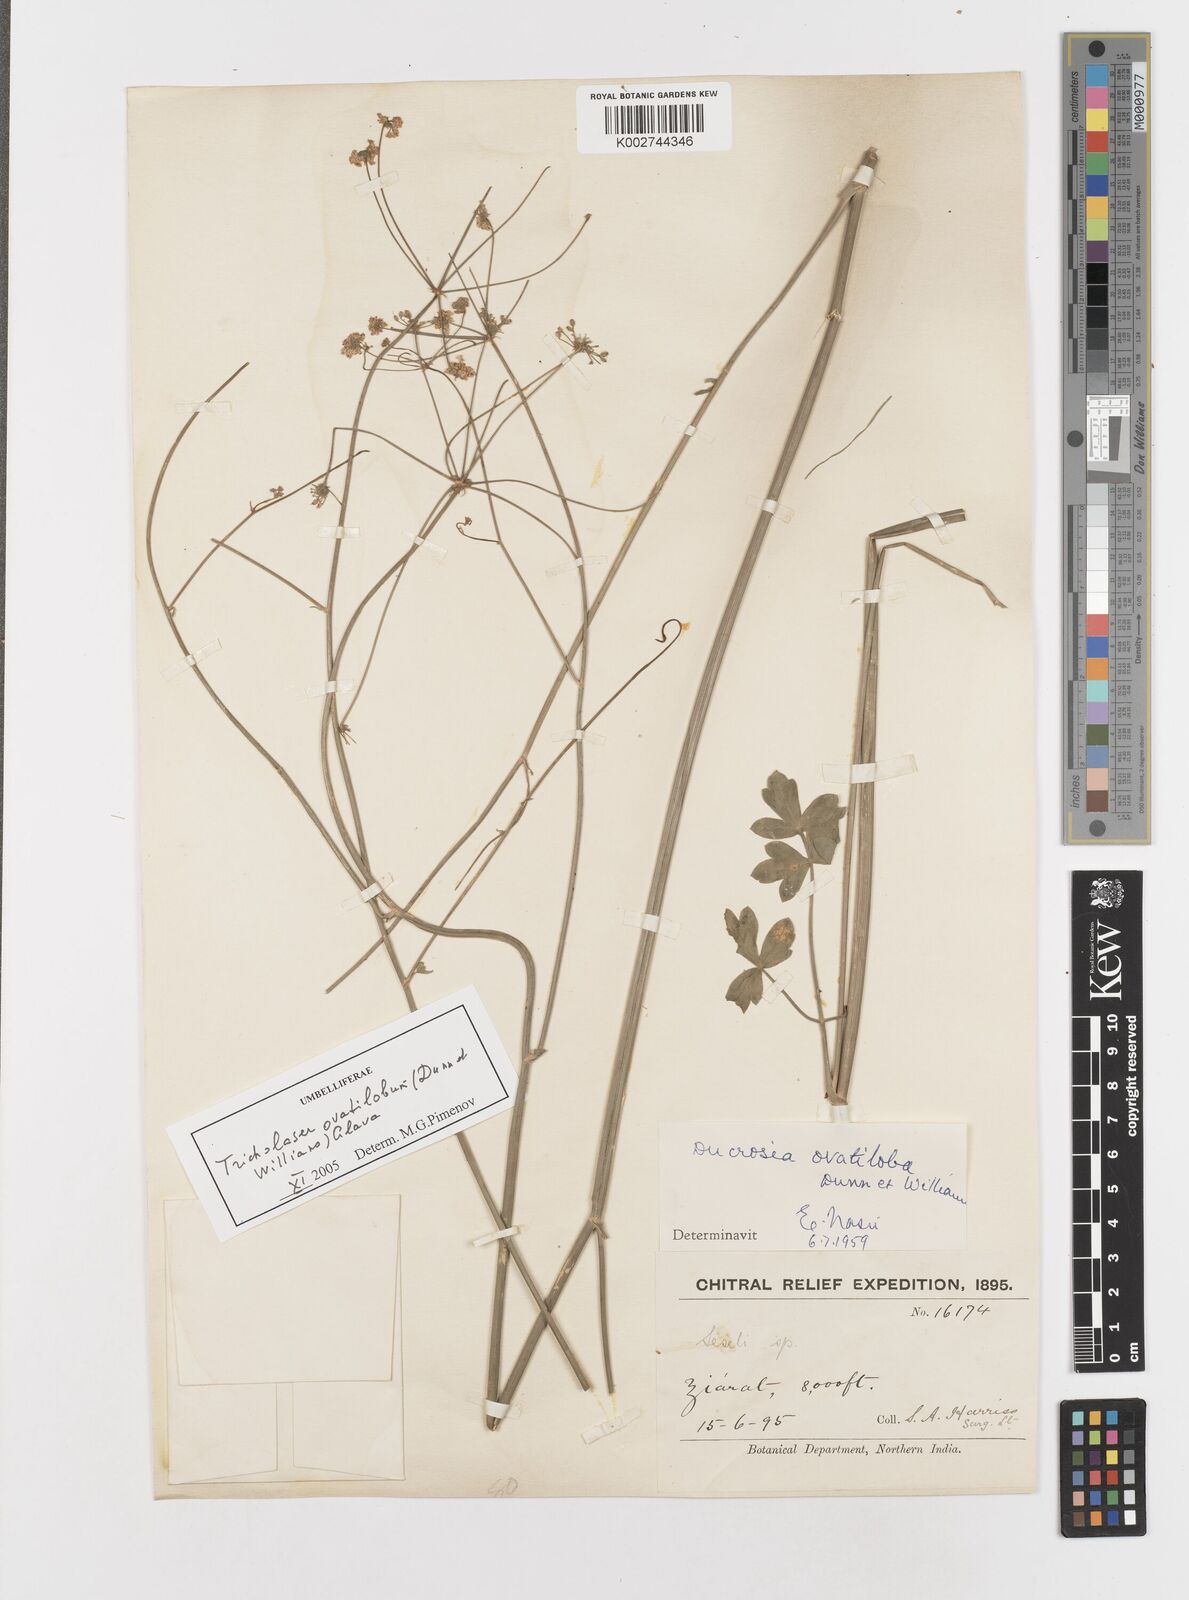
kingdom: Plantae
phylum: Tracheophyta
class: Magnoliopsida
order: Apiales
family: Apiaceae
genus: Tricholaser
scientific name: Tricholaser ovatilobum
